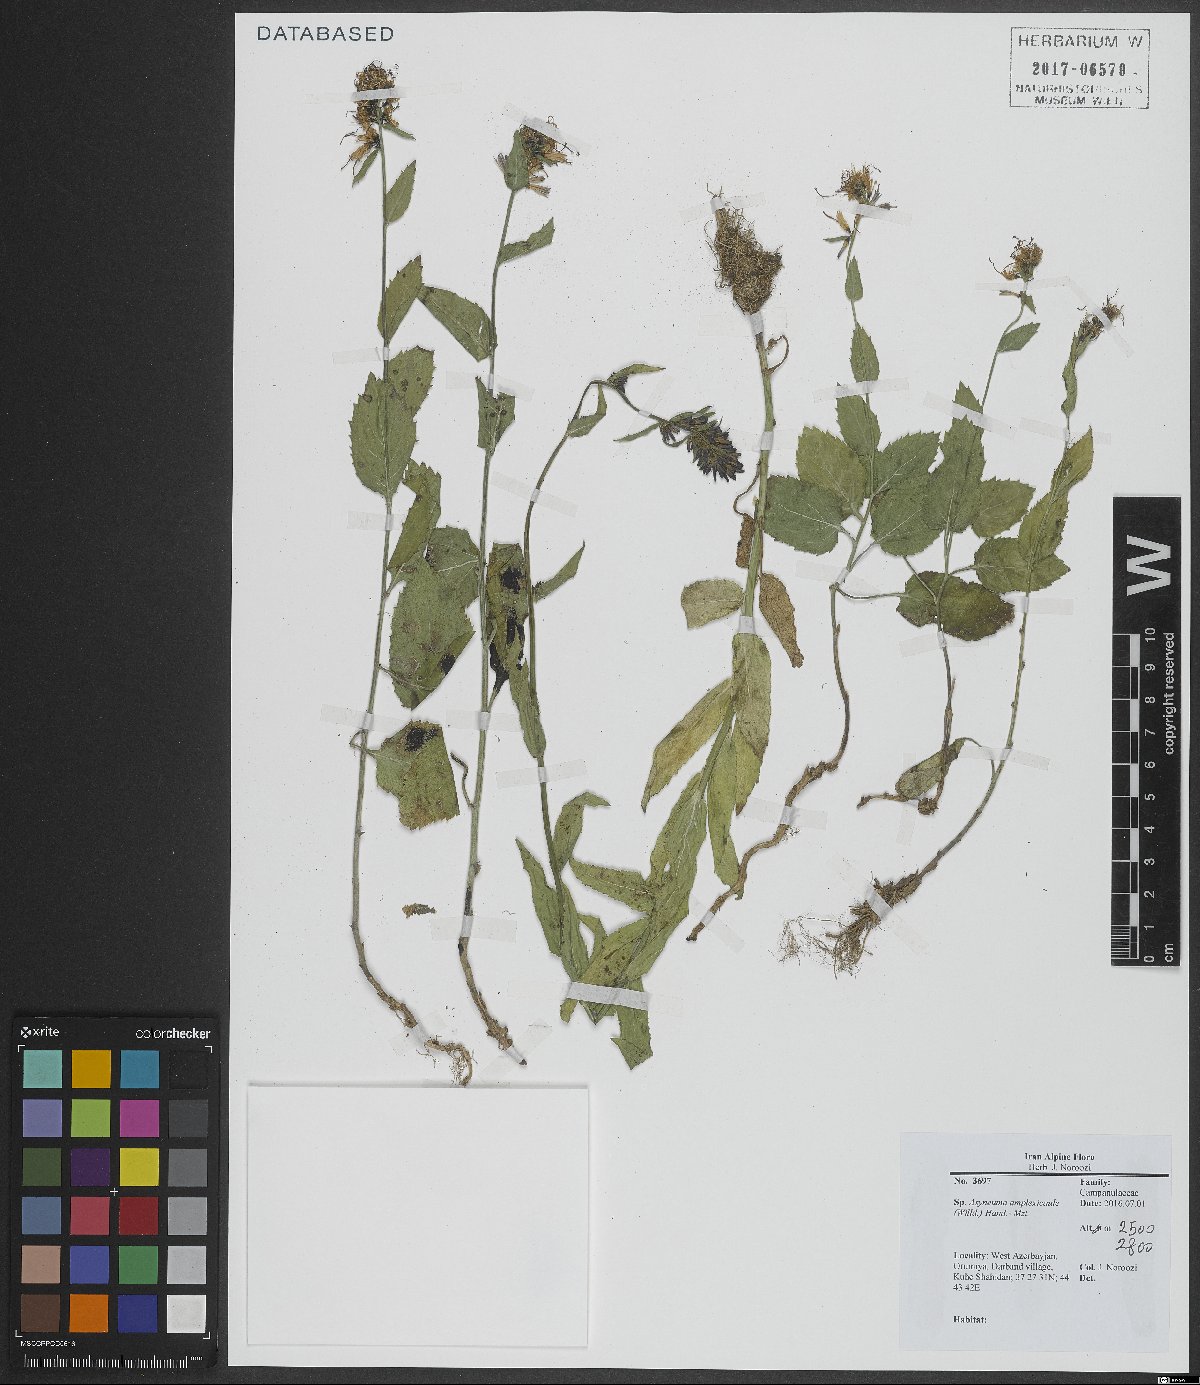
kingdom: Plantae
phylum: Tracheophyta
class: Magnoliopsida
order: Asterales
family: Campanulaceae
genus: Asyneuma
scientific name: Asyneuma amplexicaule
